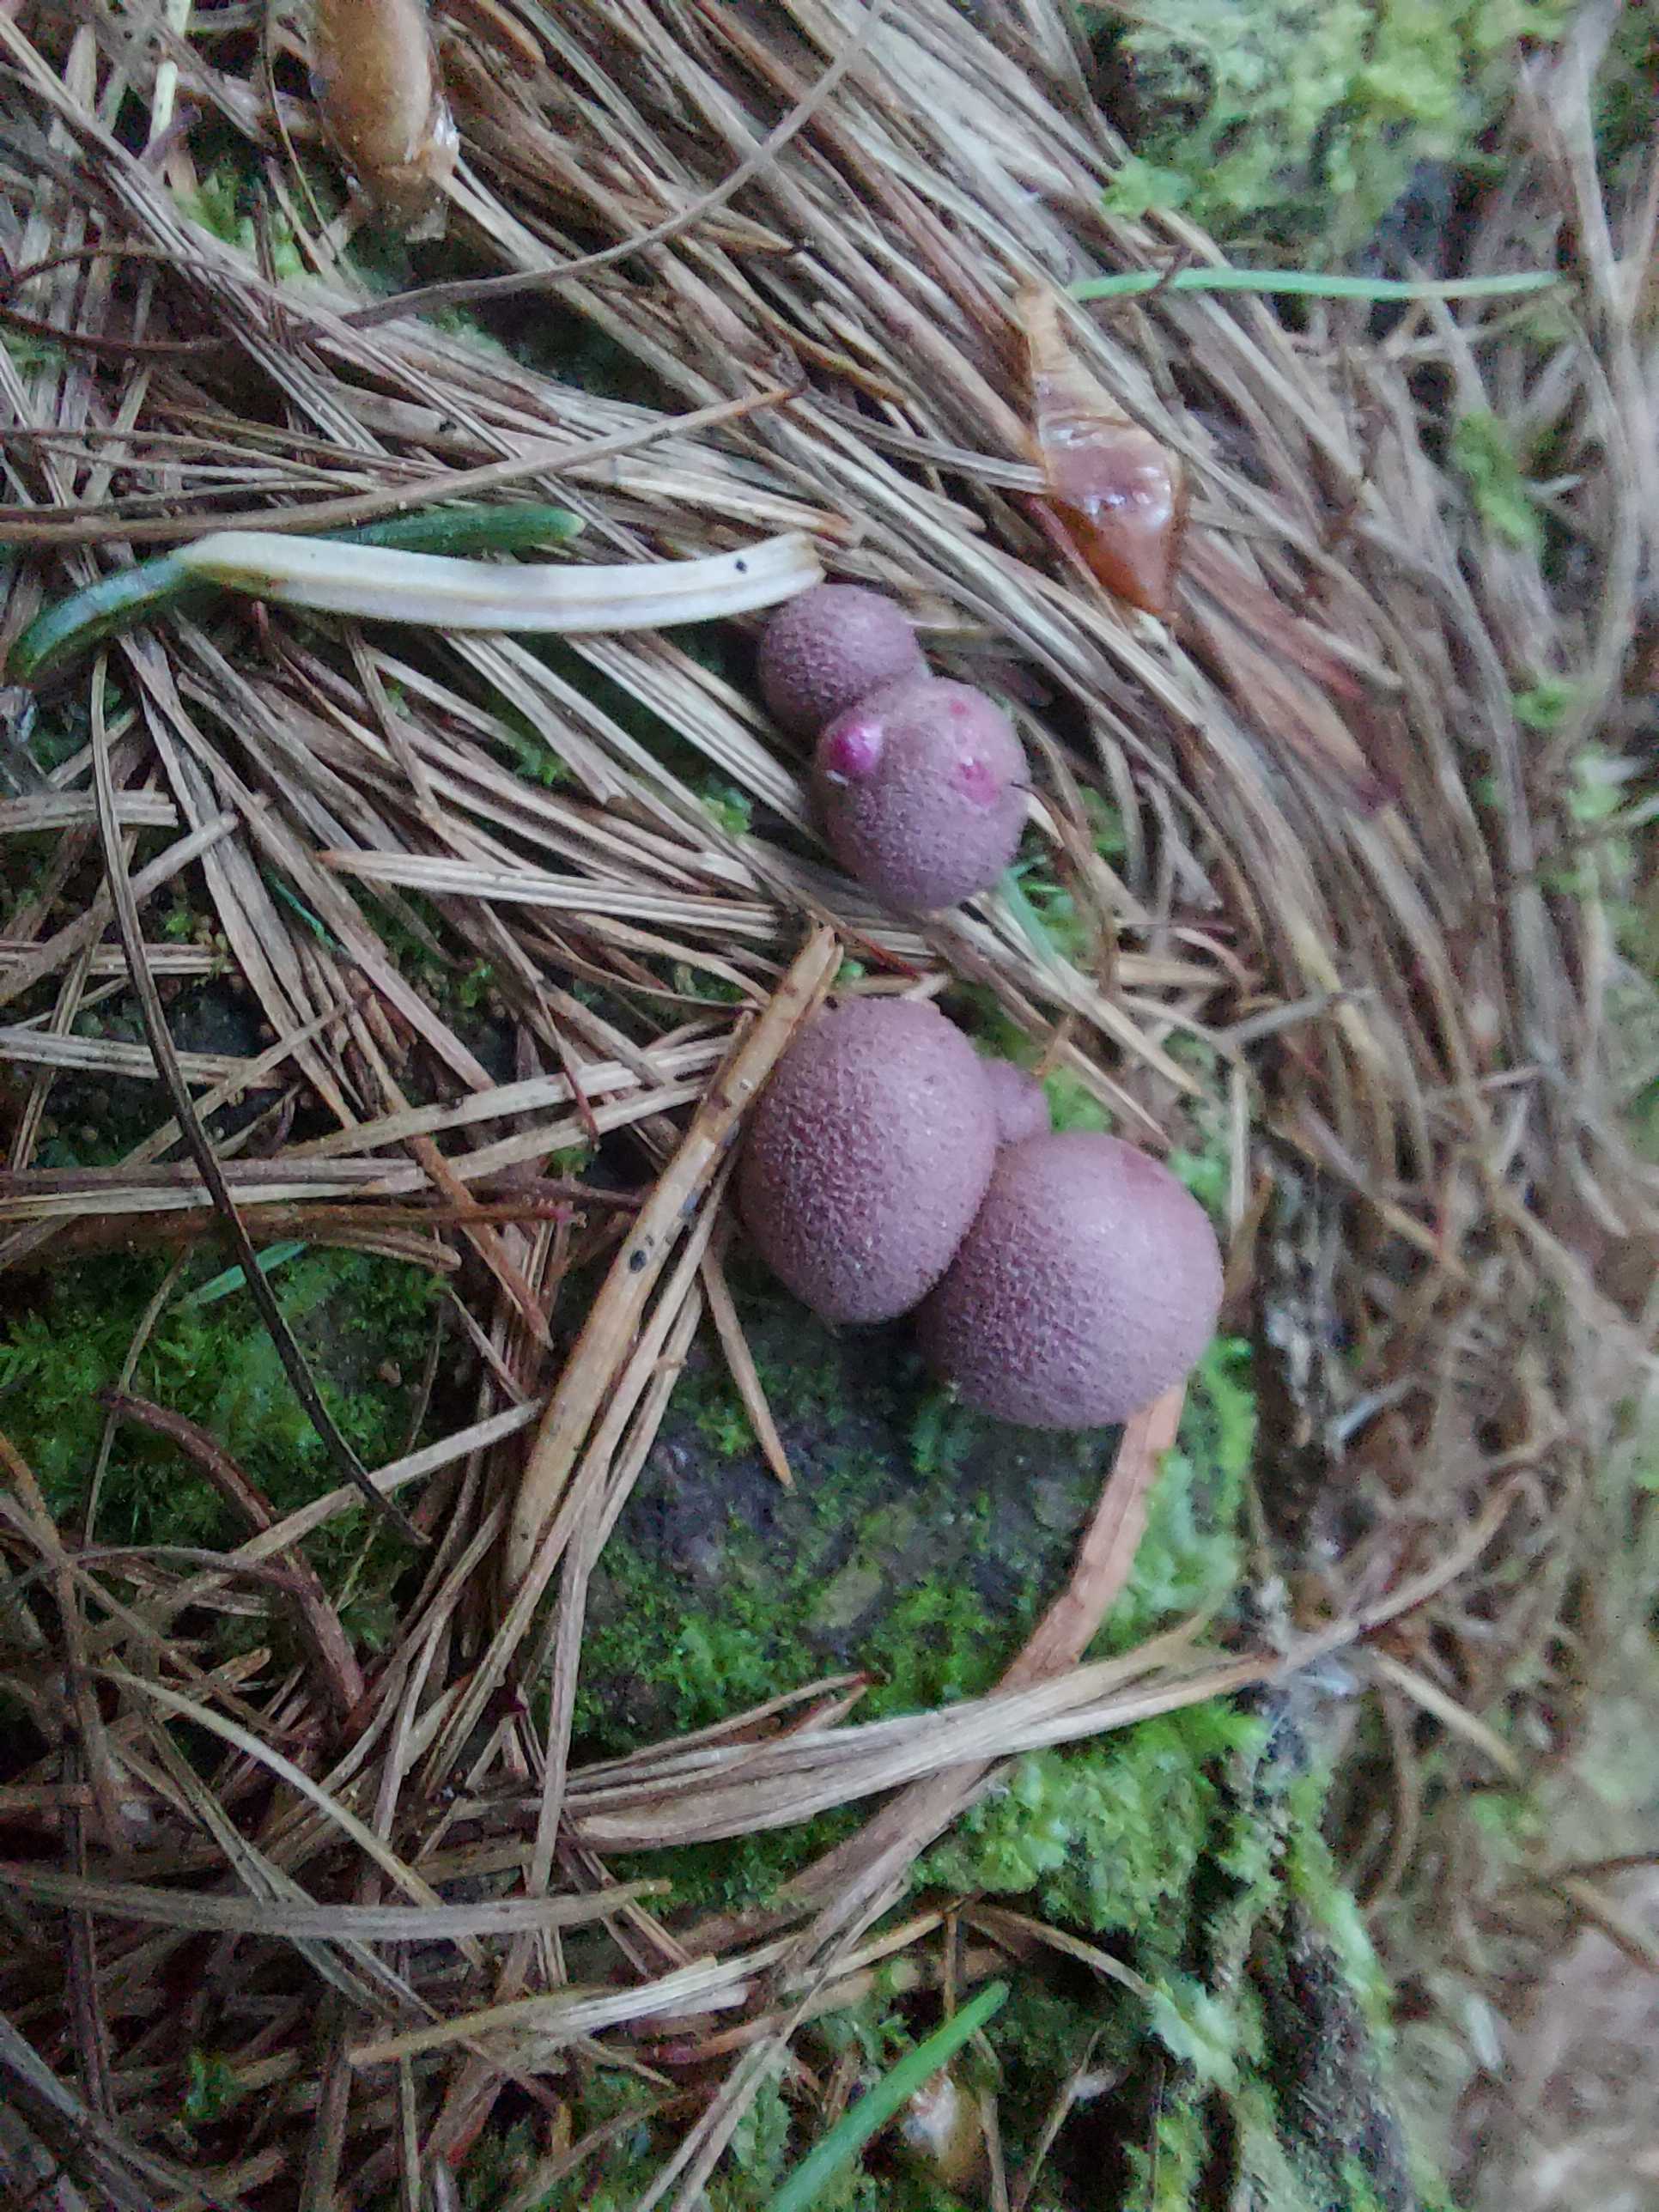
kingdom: Protozoa
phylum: Mycetozoa
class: Myxomycetes
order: Cribrariales
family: Tubiferaceae
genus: Lycogala
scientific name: Lycogala epidendrum
